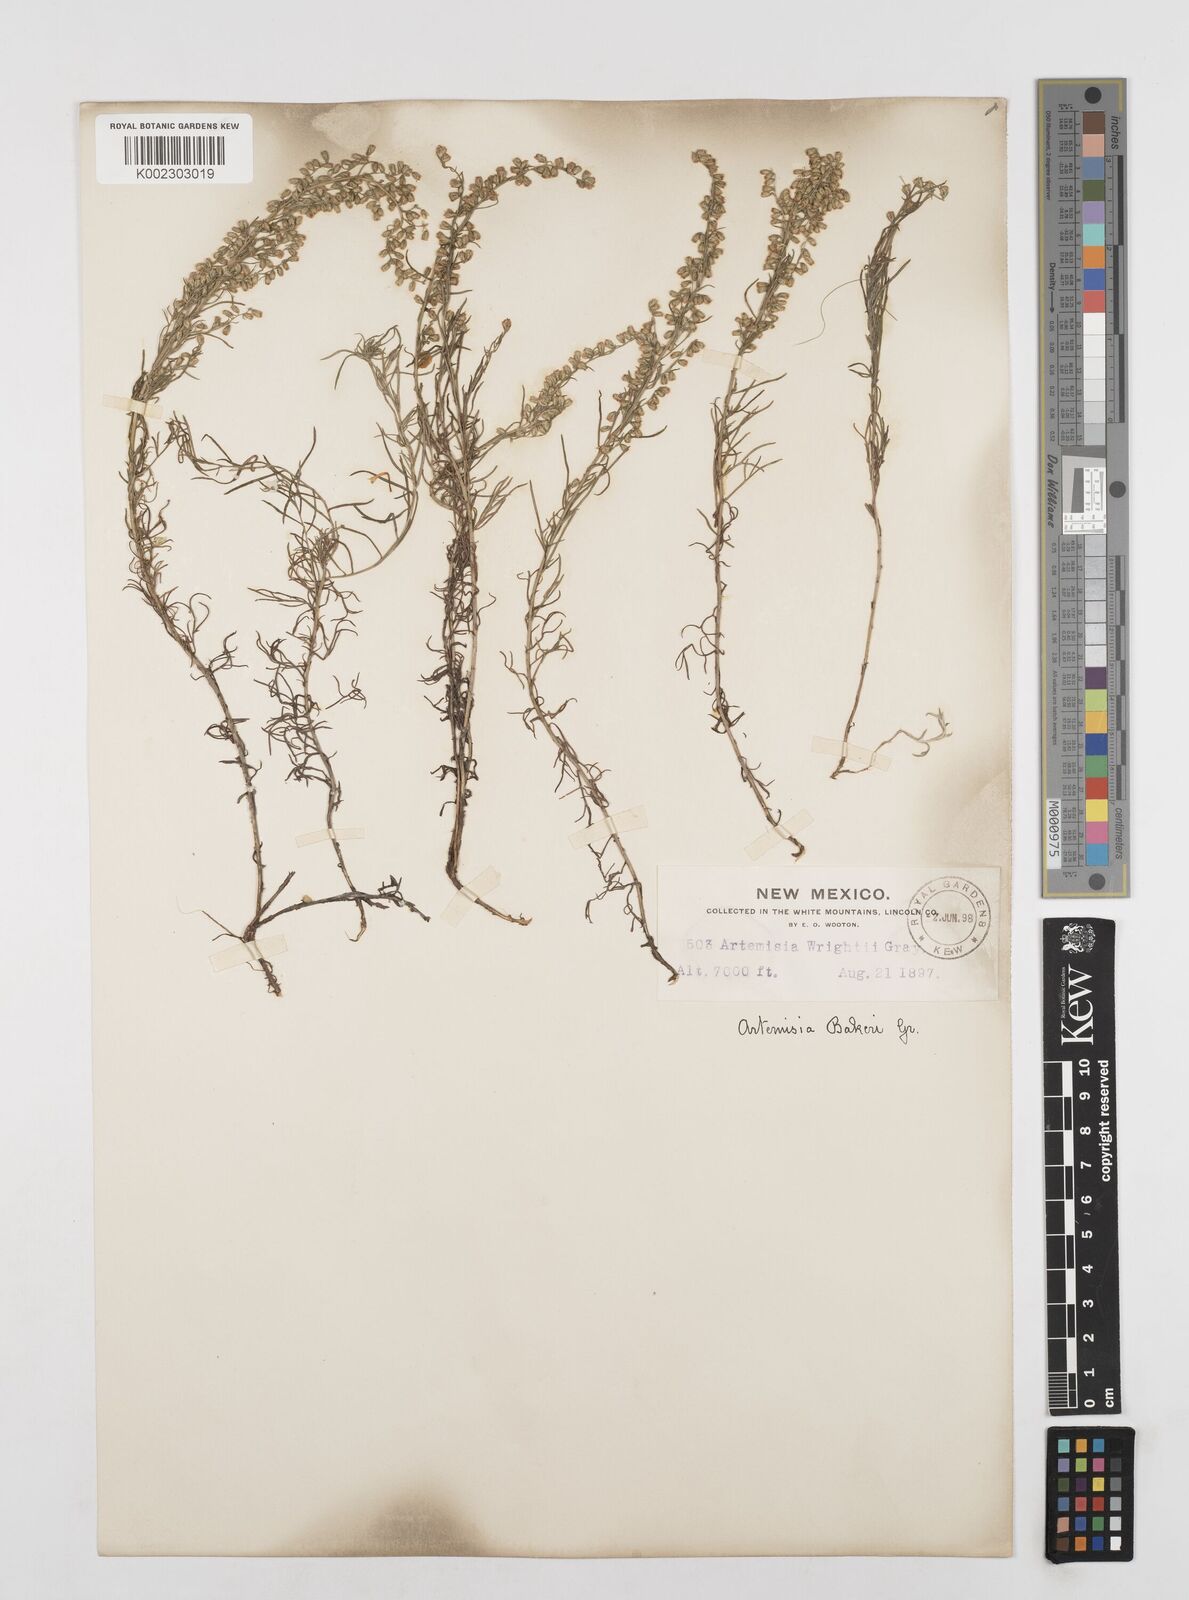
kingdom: Plantae
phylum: Tracheophyta
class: Magnoliopsida
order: Asterales
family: Asteraceae
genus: Artemisia
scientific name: Artemisia michauxiana
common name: Lemon sagewort
